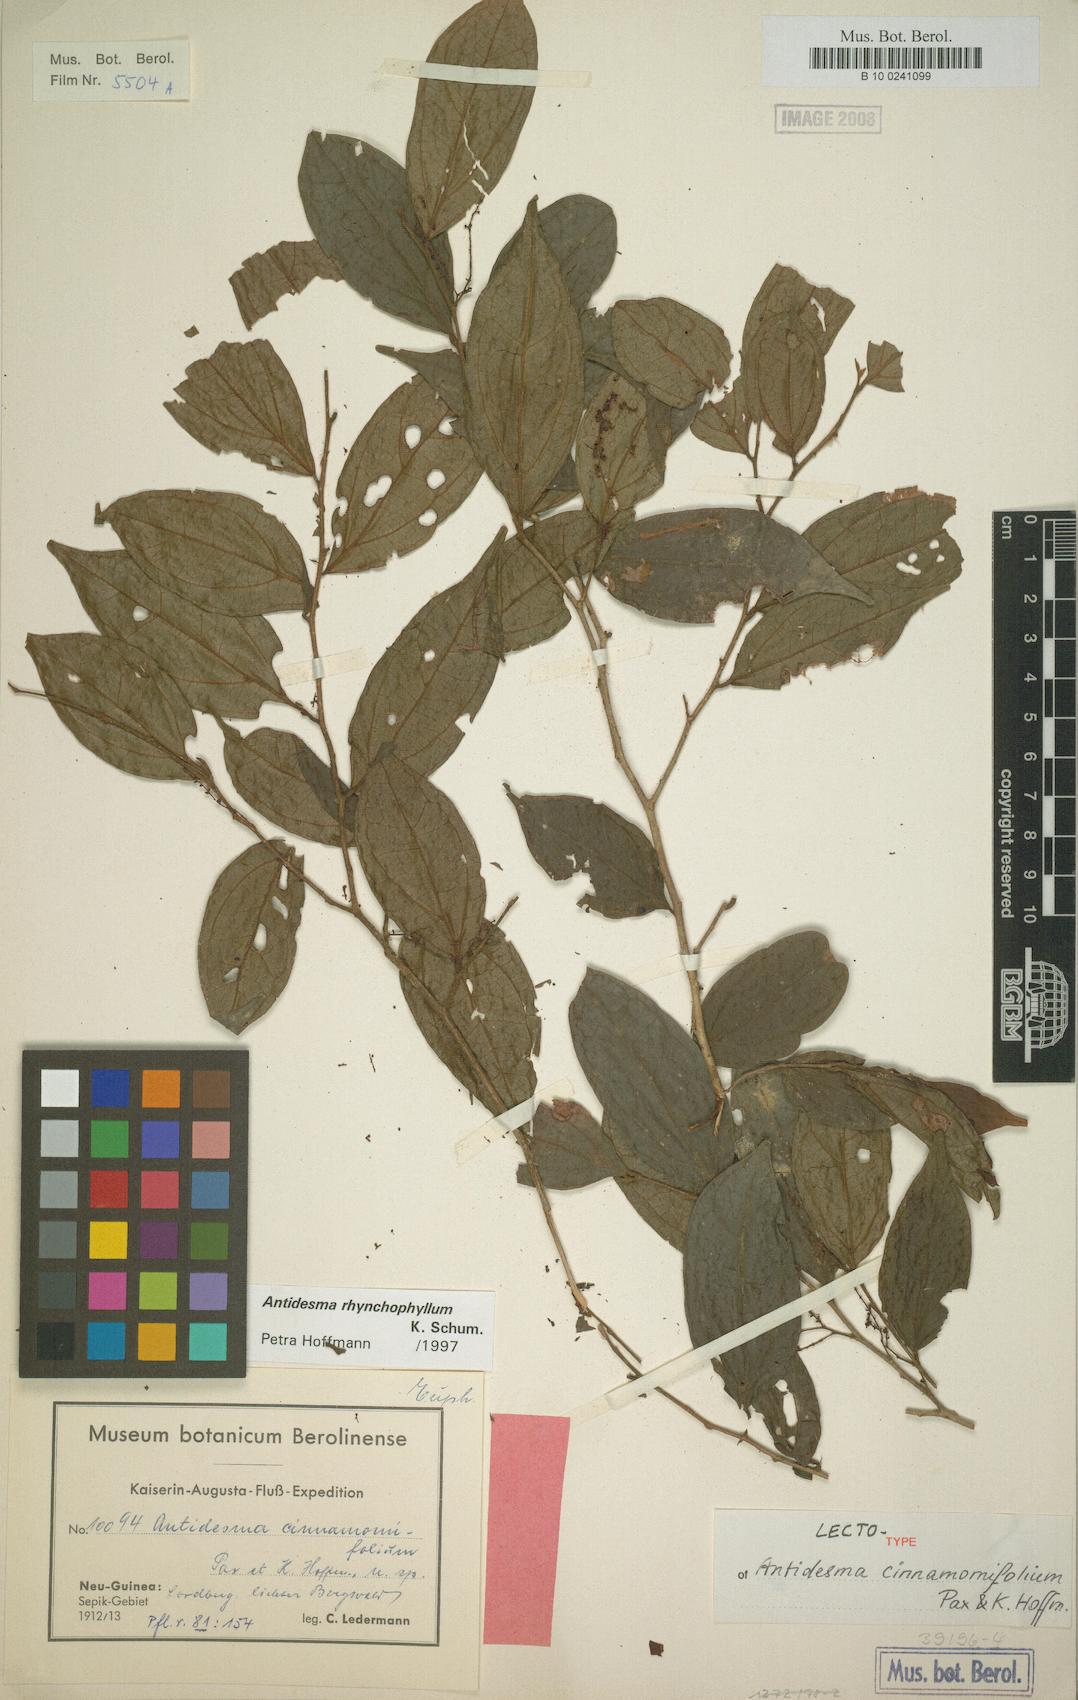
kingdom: Plantae
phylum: Tracheophyta
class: Magnoliopsida
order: Malpighiales
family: Phyllanthaceae
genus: Antidesma
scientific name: Antidesma rhynchophyllum
